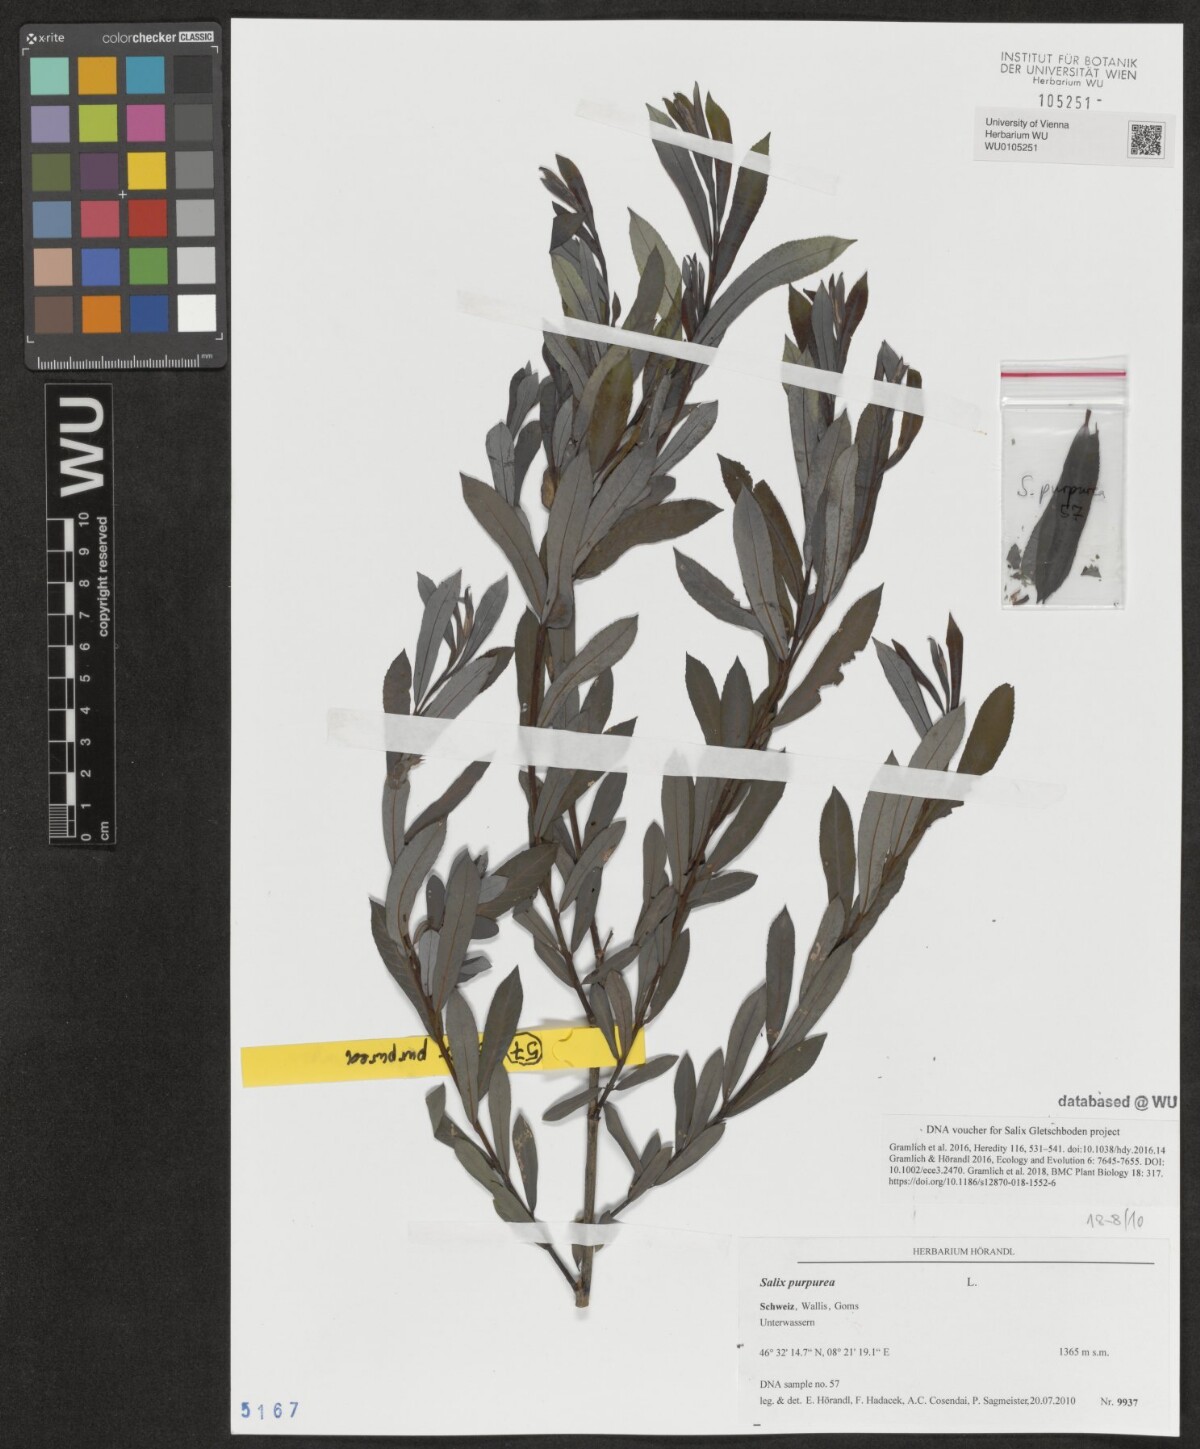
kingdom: Plantae
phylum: Tracheophyta
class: Magnoliopsida
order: Malpighiales
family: Salicaceae
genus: Salix
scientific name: Salix purpurea
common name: Purple willow
